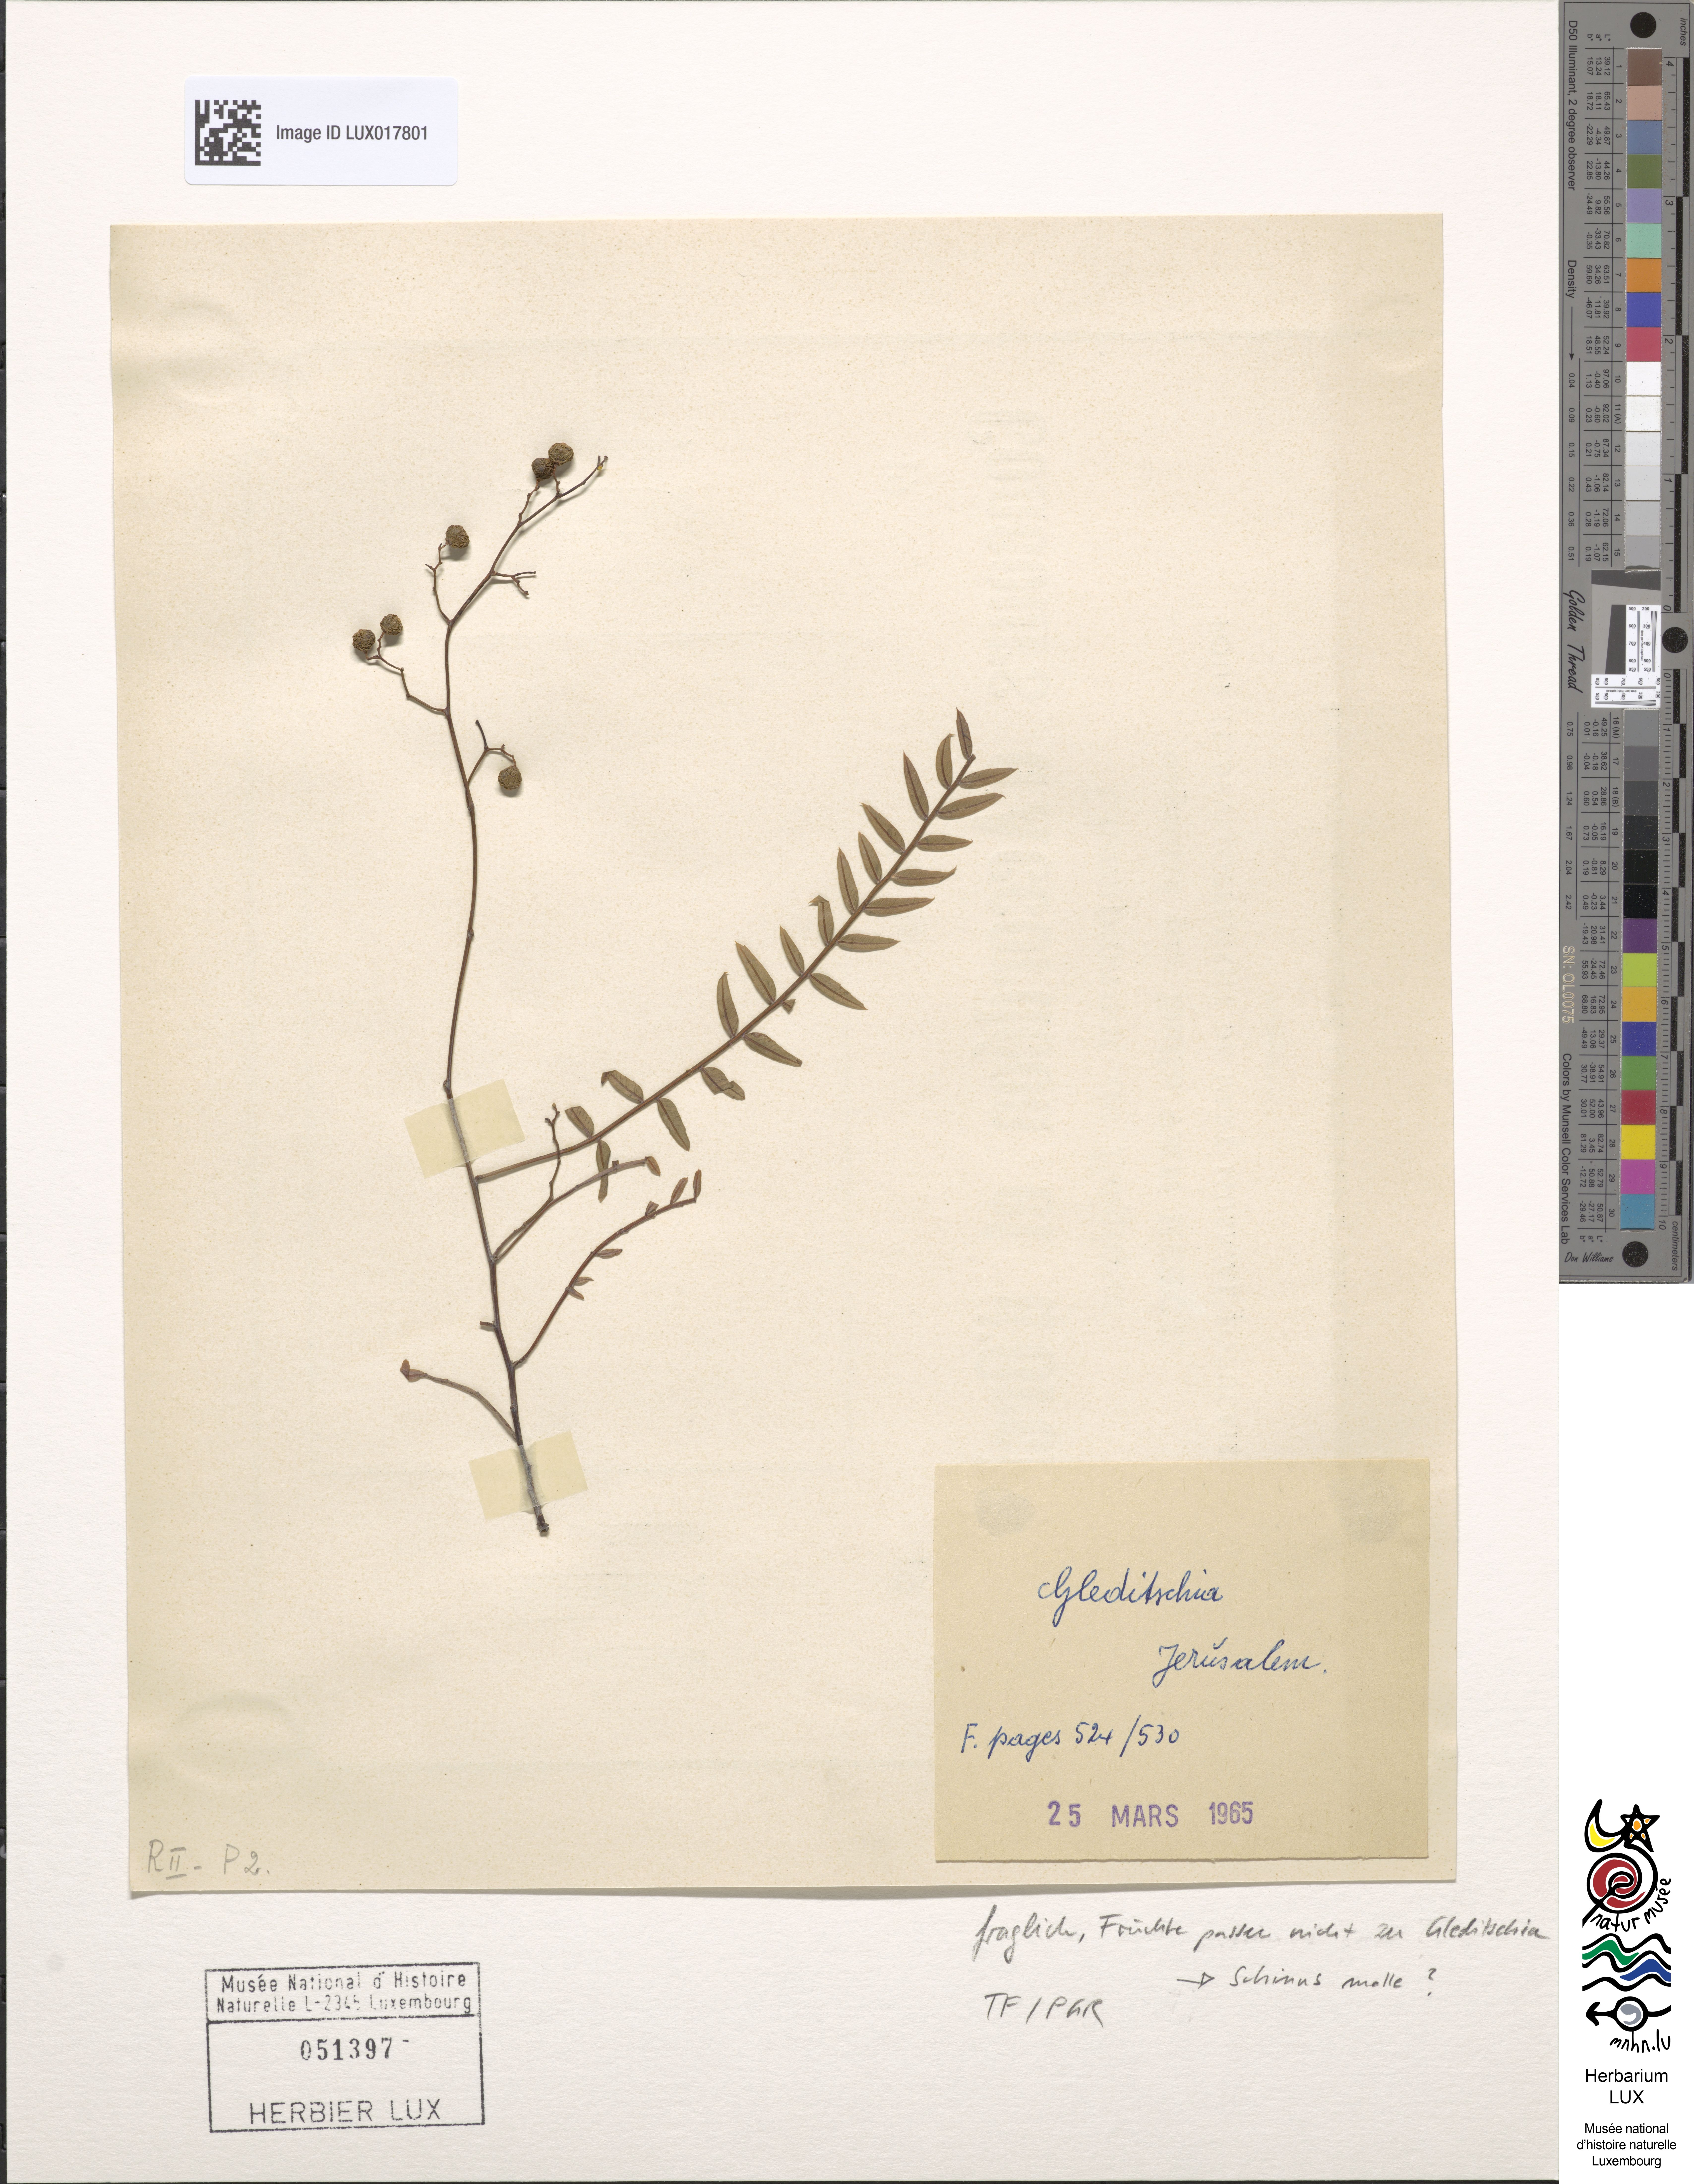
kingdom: Plantae
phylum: Tracheophyta
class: Magnoliopsida
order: Sapindales
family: Anacardiaceae
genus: Schinus
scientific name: Schinus molle
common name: Peruvian peppertree
